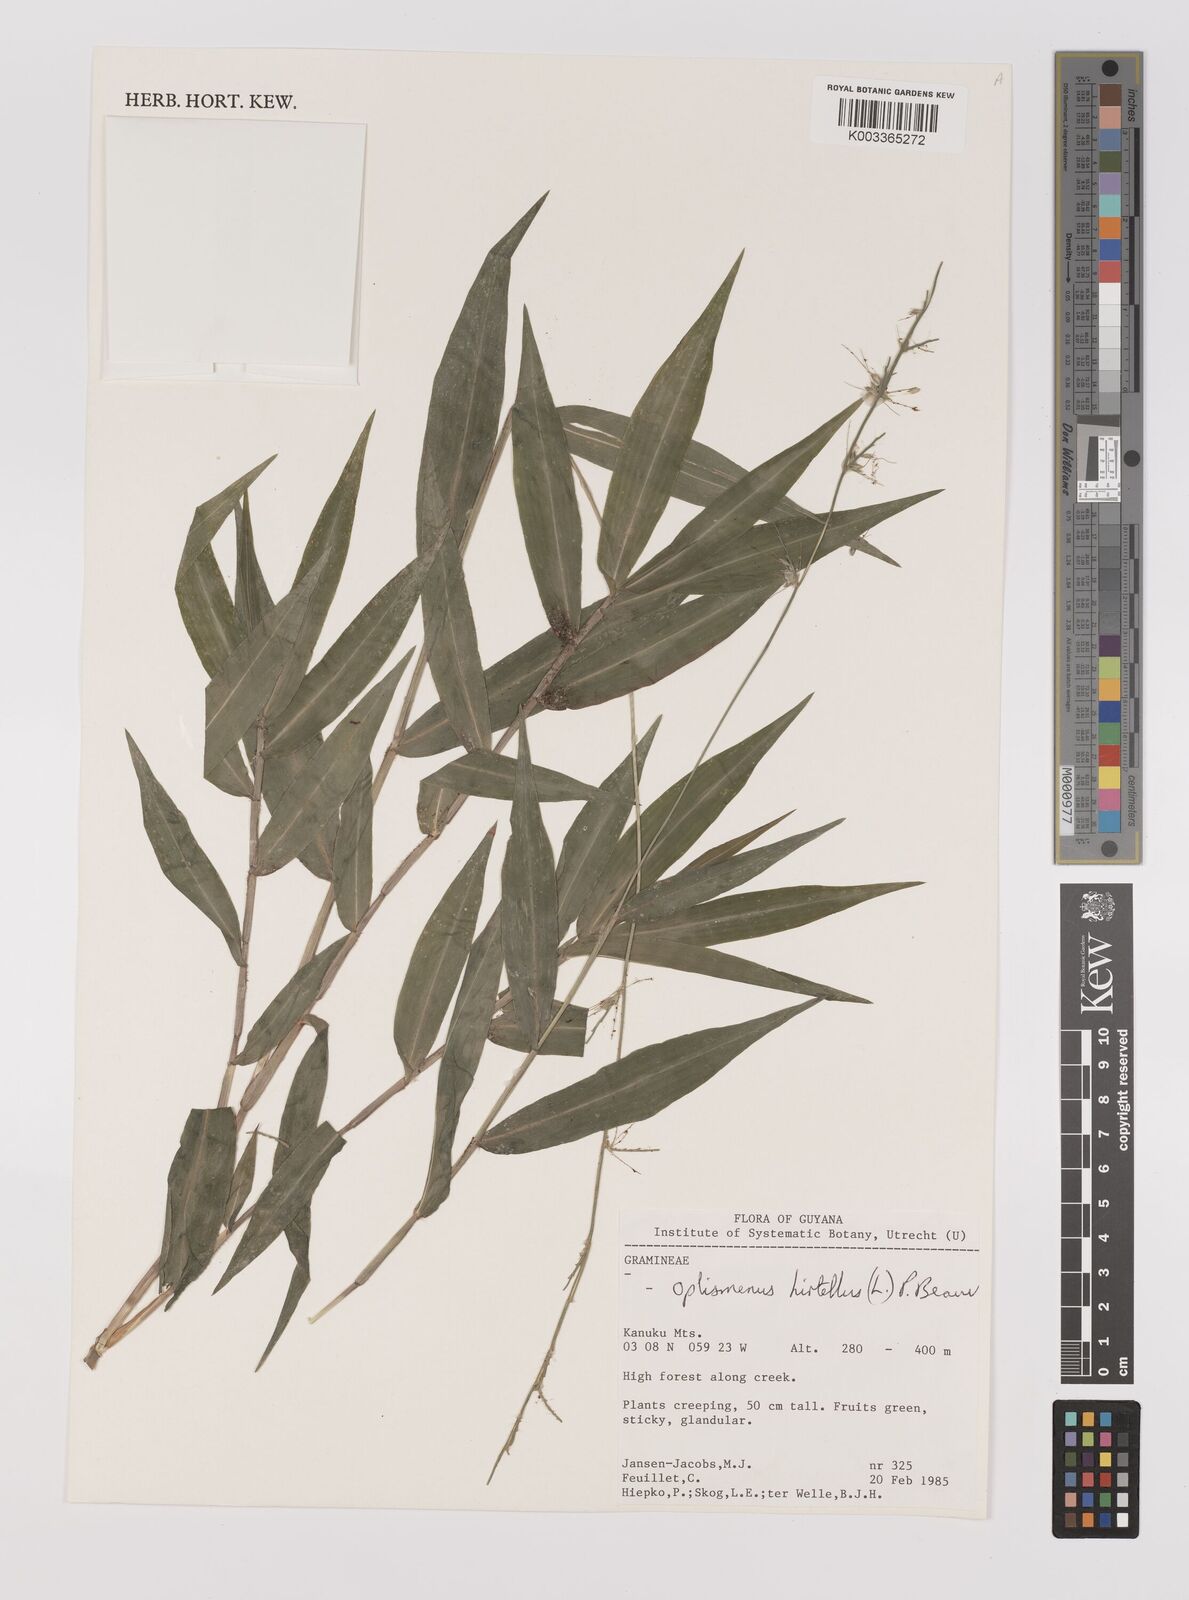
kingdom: Plantae
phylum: Tracheophyta
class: Liliopsida
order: Poales
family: Poaceae
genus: Oplismenus
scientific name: Oplismenus hirtellus
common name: Basketgrass
